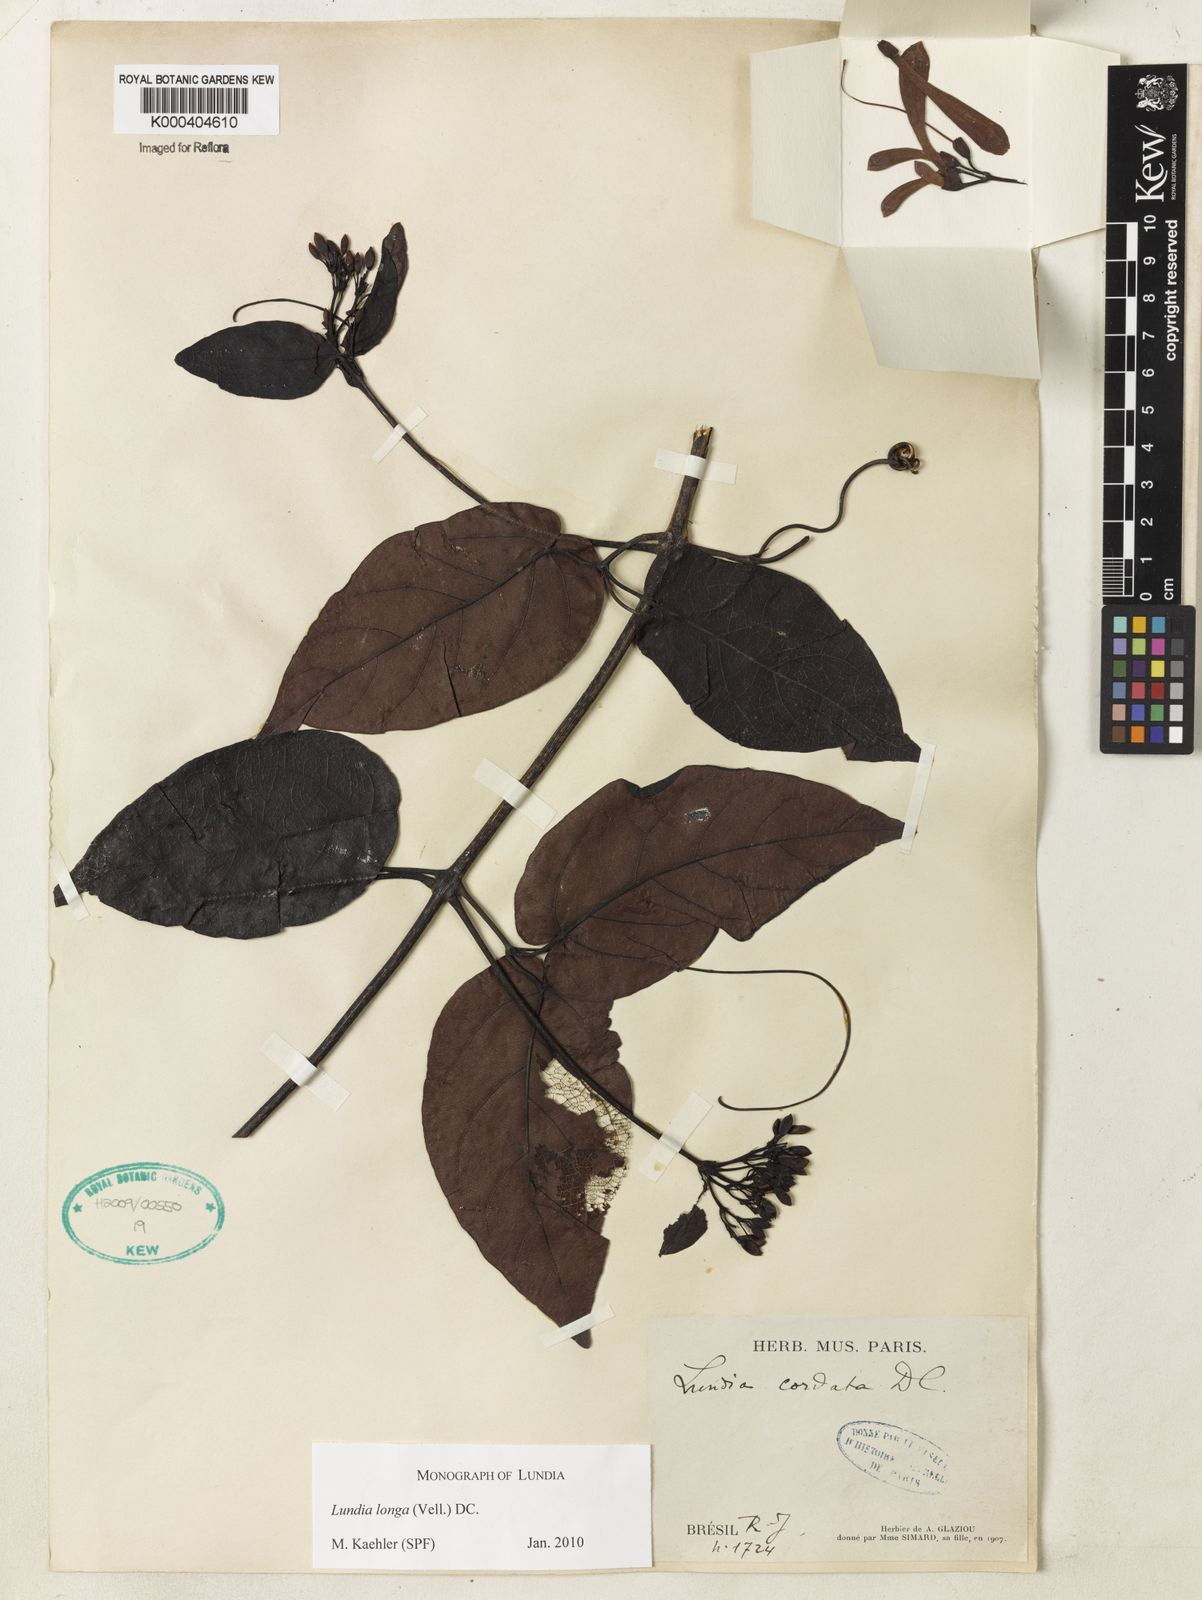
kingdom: Plantae
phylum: Tracheophyta
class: Magnoliopsida
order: Lamiales
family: Bignoniaceae
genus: Lundia
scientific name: Lundia longa
